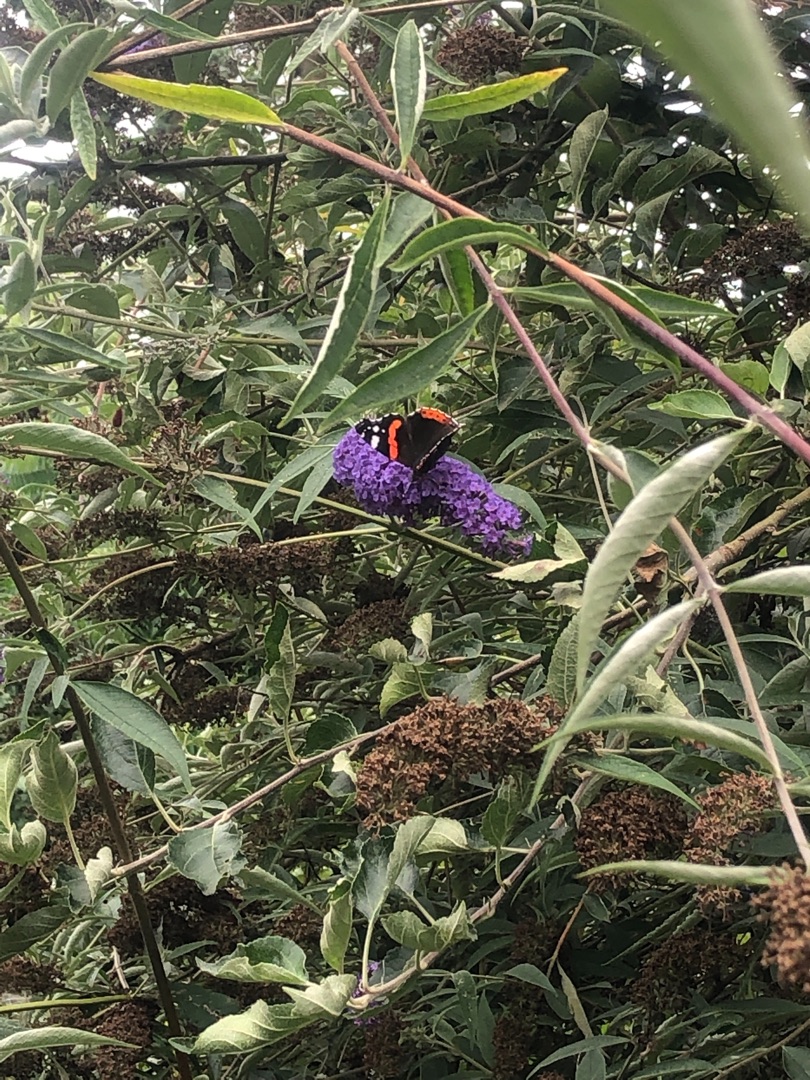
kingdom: Animalia
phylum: Arthropoda
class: Insecta
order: Lepidoptera
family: Nymphalidae
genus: Vanessa
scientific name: Vanessa atalanta
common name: Admiral
